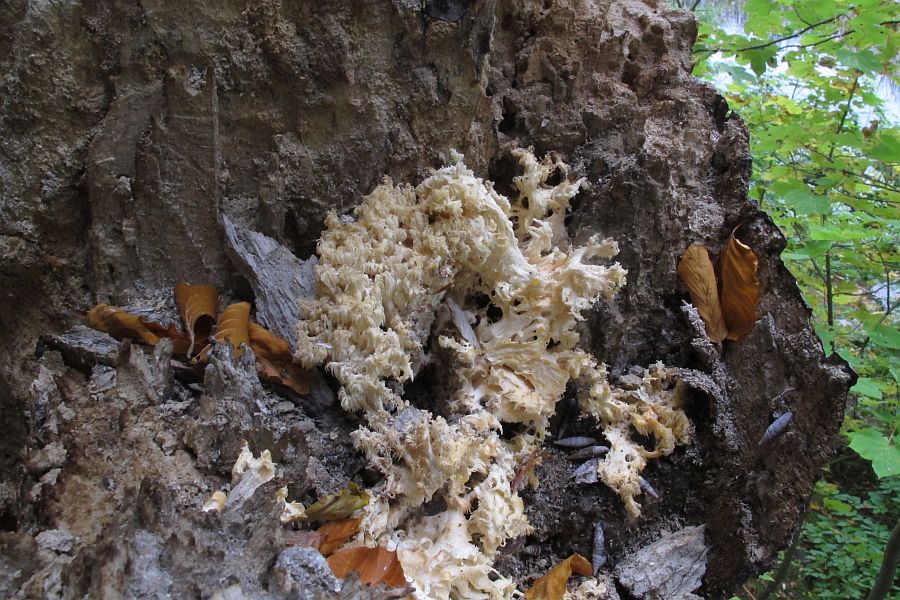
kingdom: Fungi
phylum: Basidiomycota
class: Agaricomycetes
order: Russulales
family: Hericiaceae
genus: Hericium
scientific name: Hericium coralloides
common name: koralpigsvamp
